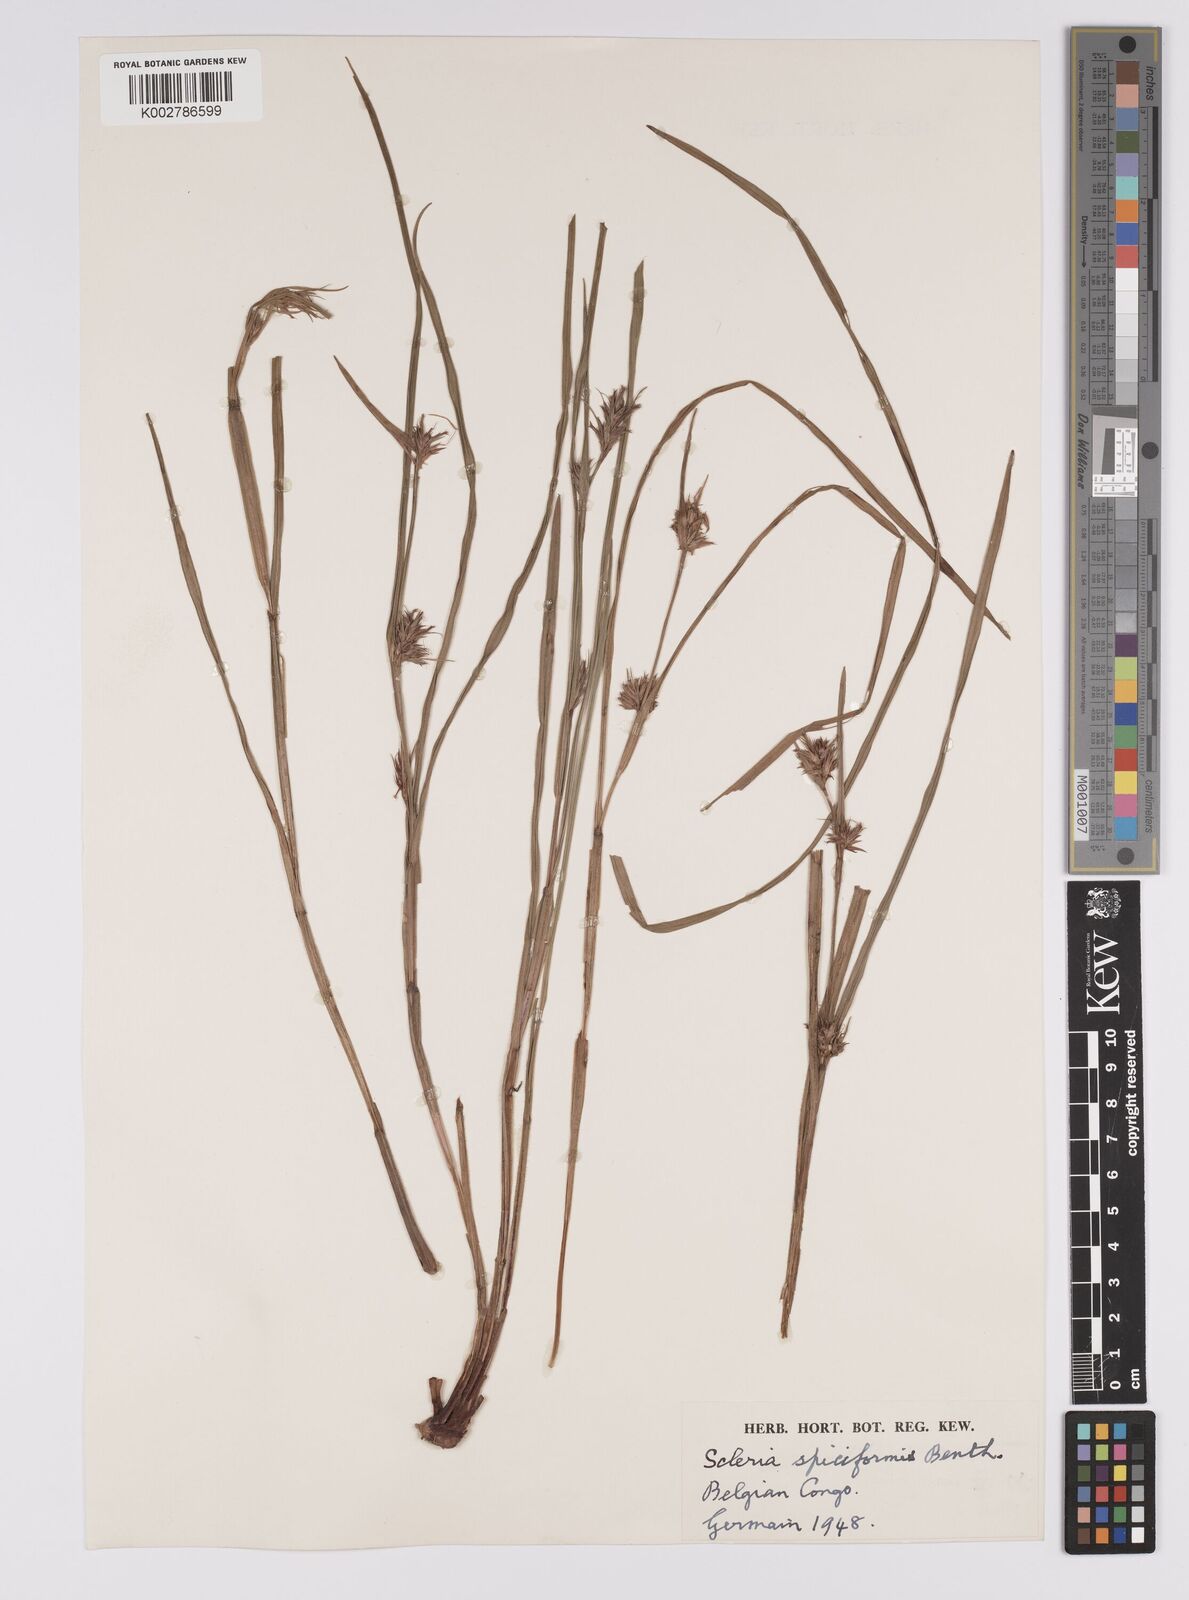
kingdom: Plantae
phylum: Tracheophyta
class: Liliopsida
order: Poales
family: Cyperaceae
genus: Scleria
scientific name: Scleria spiciformis
